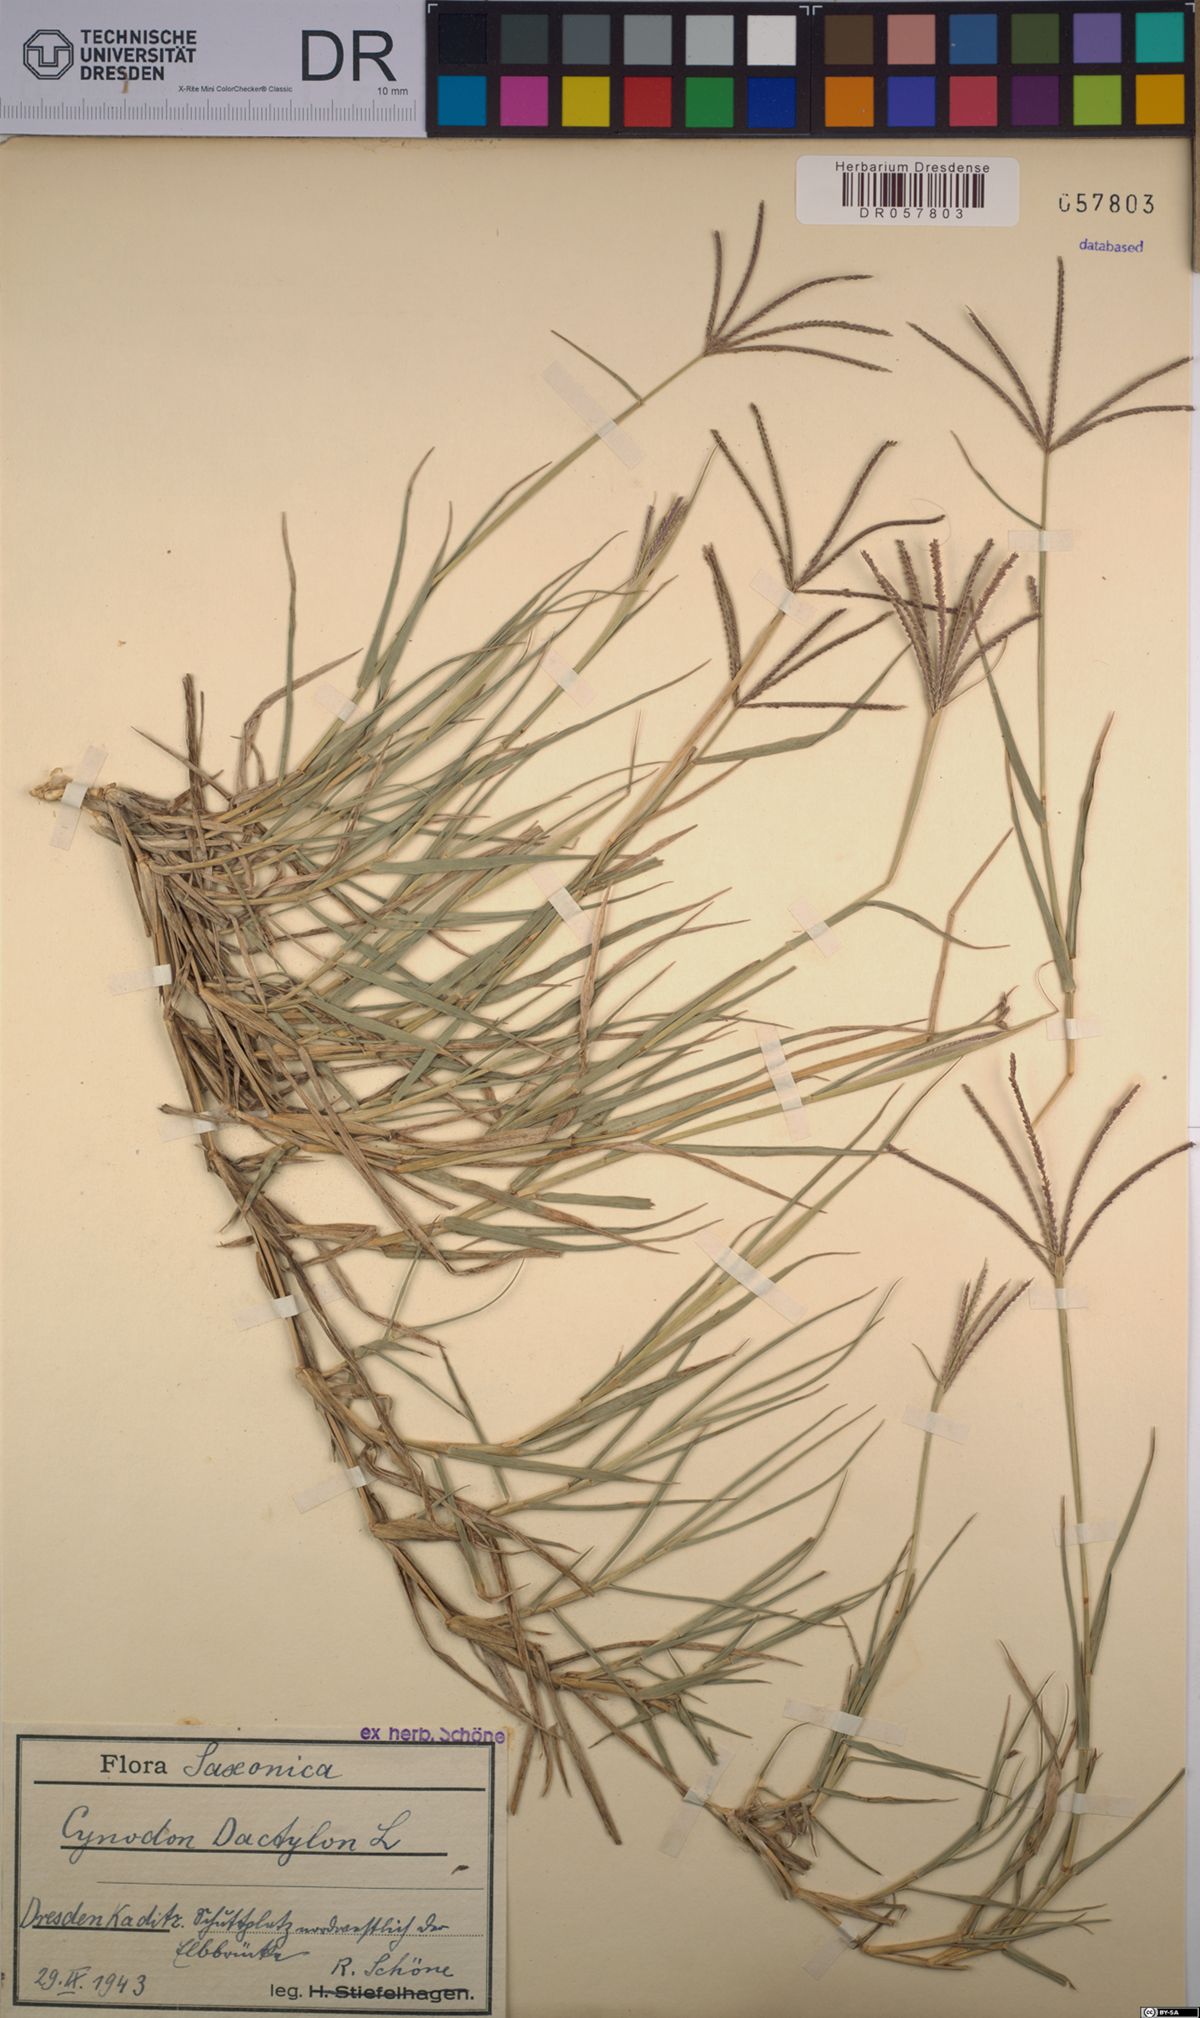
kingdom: Plantae
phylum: Tracheophyta
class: Liliopsida
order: Poales
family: Poaceae
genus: Cynodon
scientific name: Cynodon dactylon
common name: Bermuda grass
